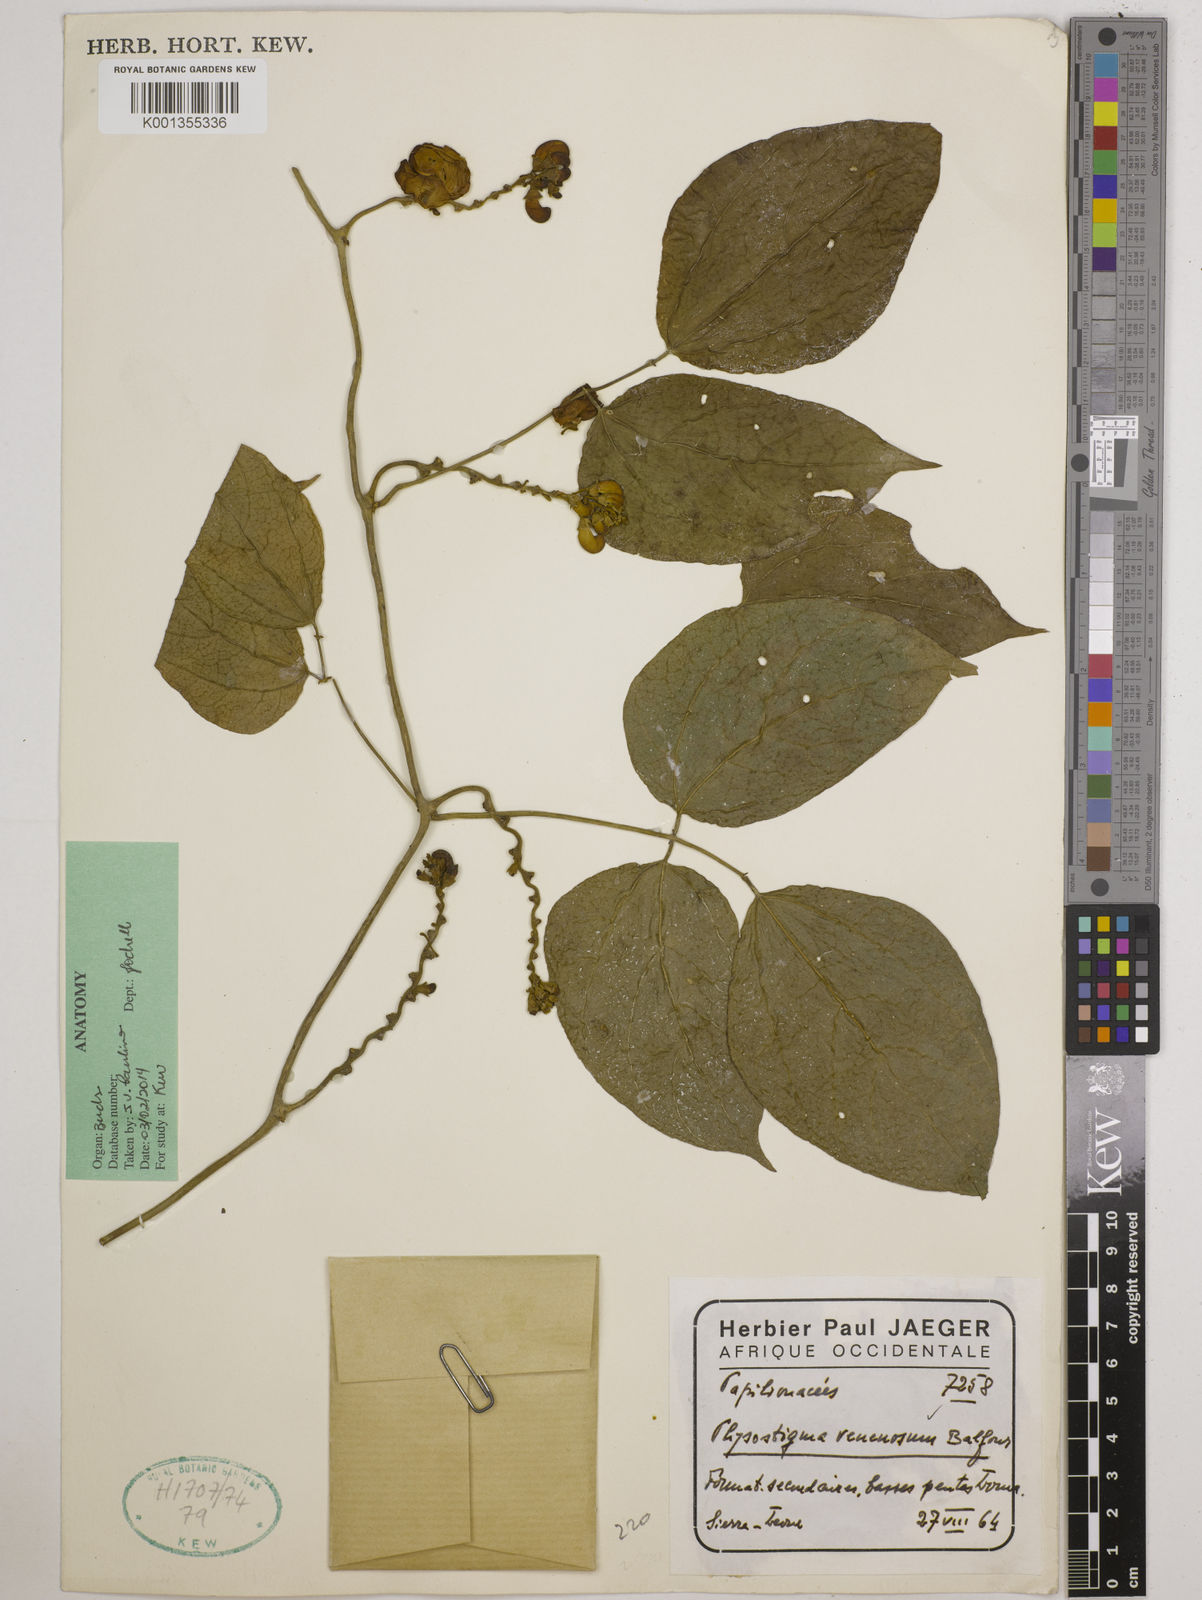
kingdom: Plantae
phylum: Tracheophyta
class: Magnoliopsida
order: Fabales
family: Fabaceae
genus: Physostigma
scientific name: Physostigma venenosum
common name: Calabar-bean
